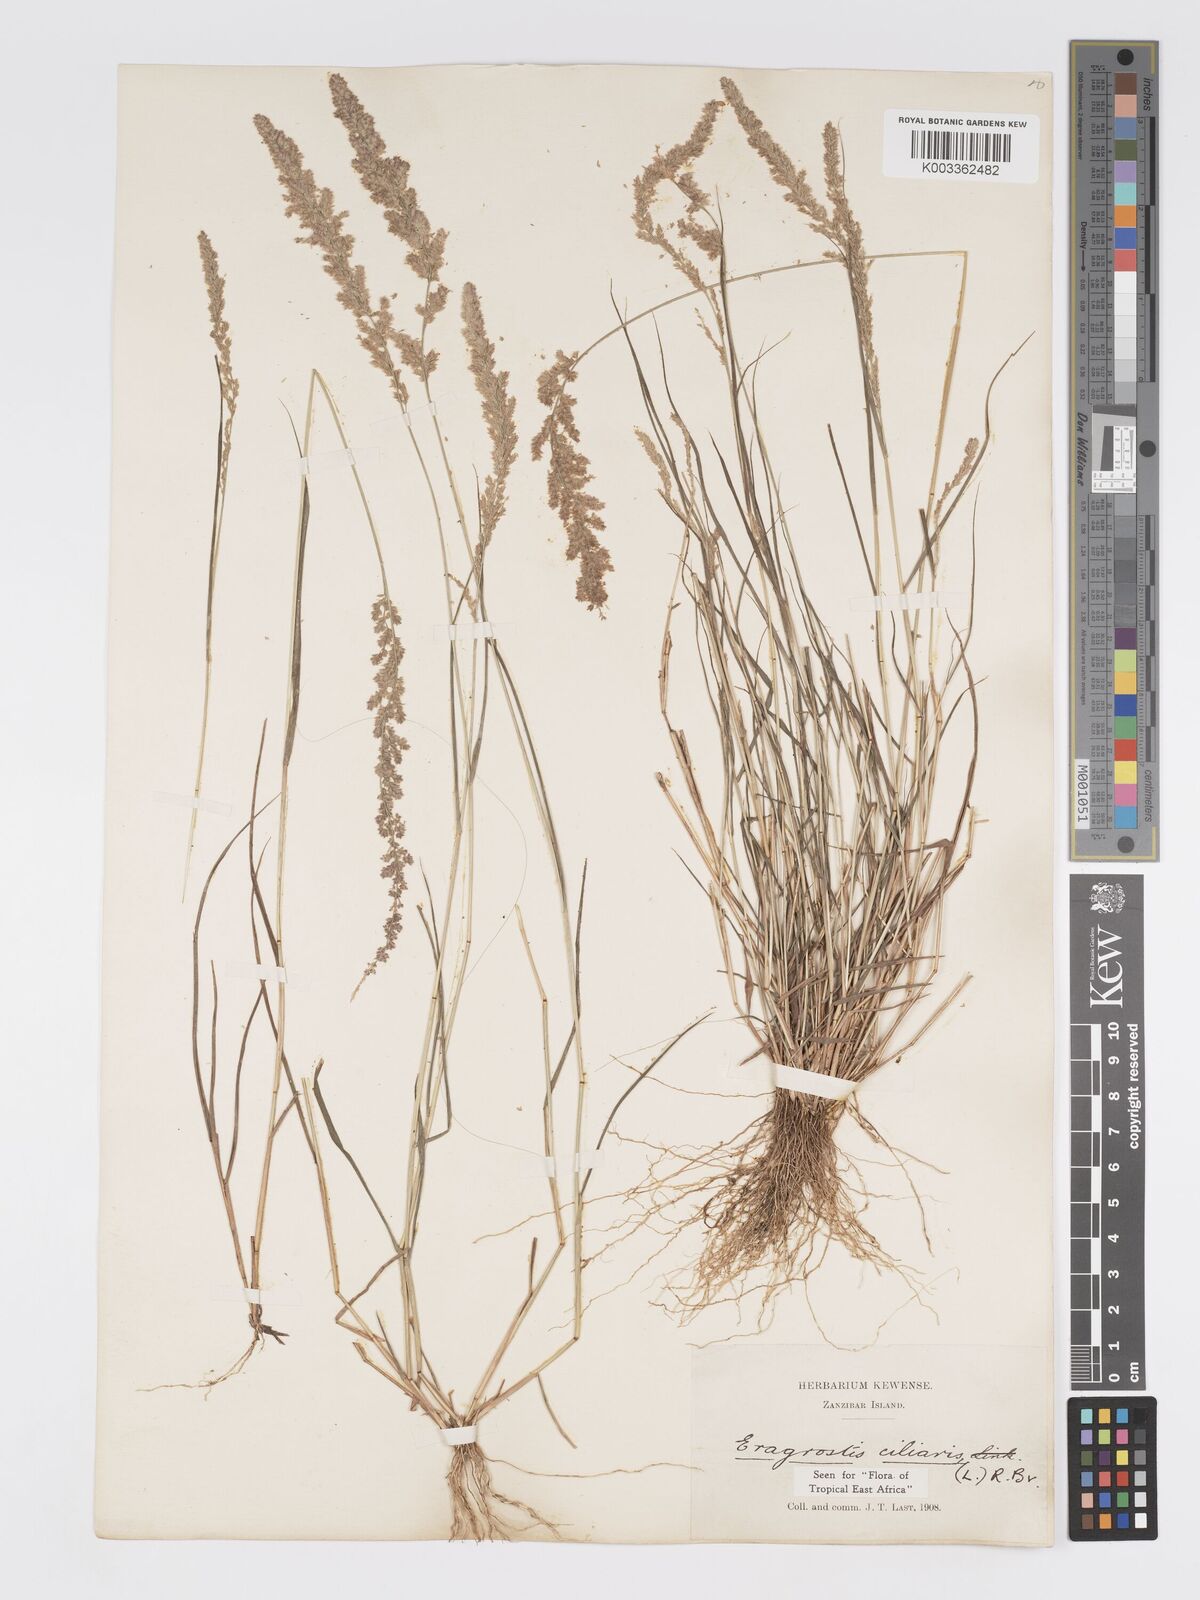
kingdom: Plantae
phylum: Tracheophyta
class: Liliopsida
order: Poales
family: Poaceae
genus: Eragrostis
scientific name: Eragrostis ciliaris
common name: Gophertail lovegrass
